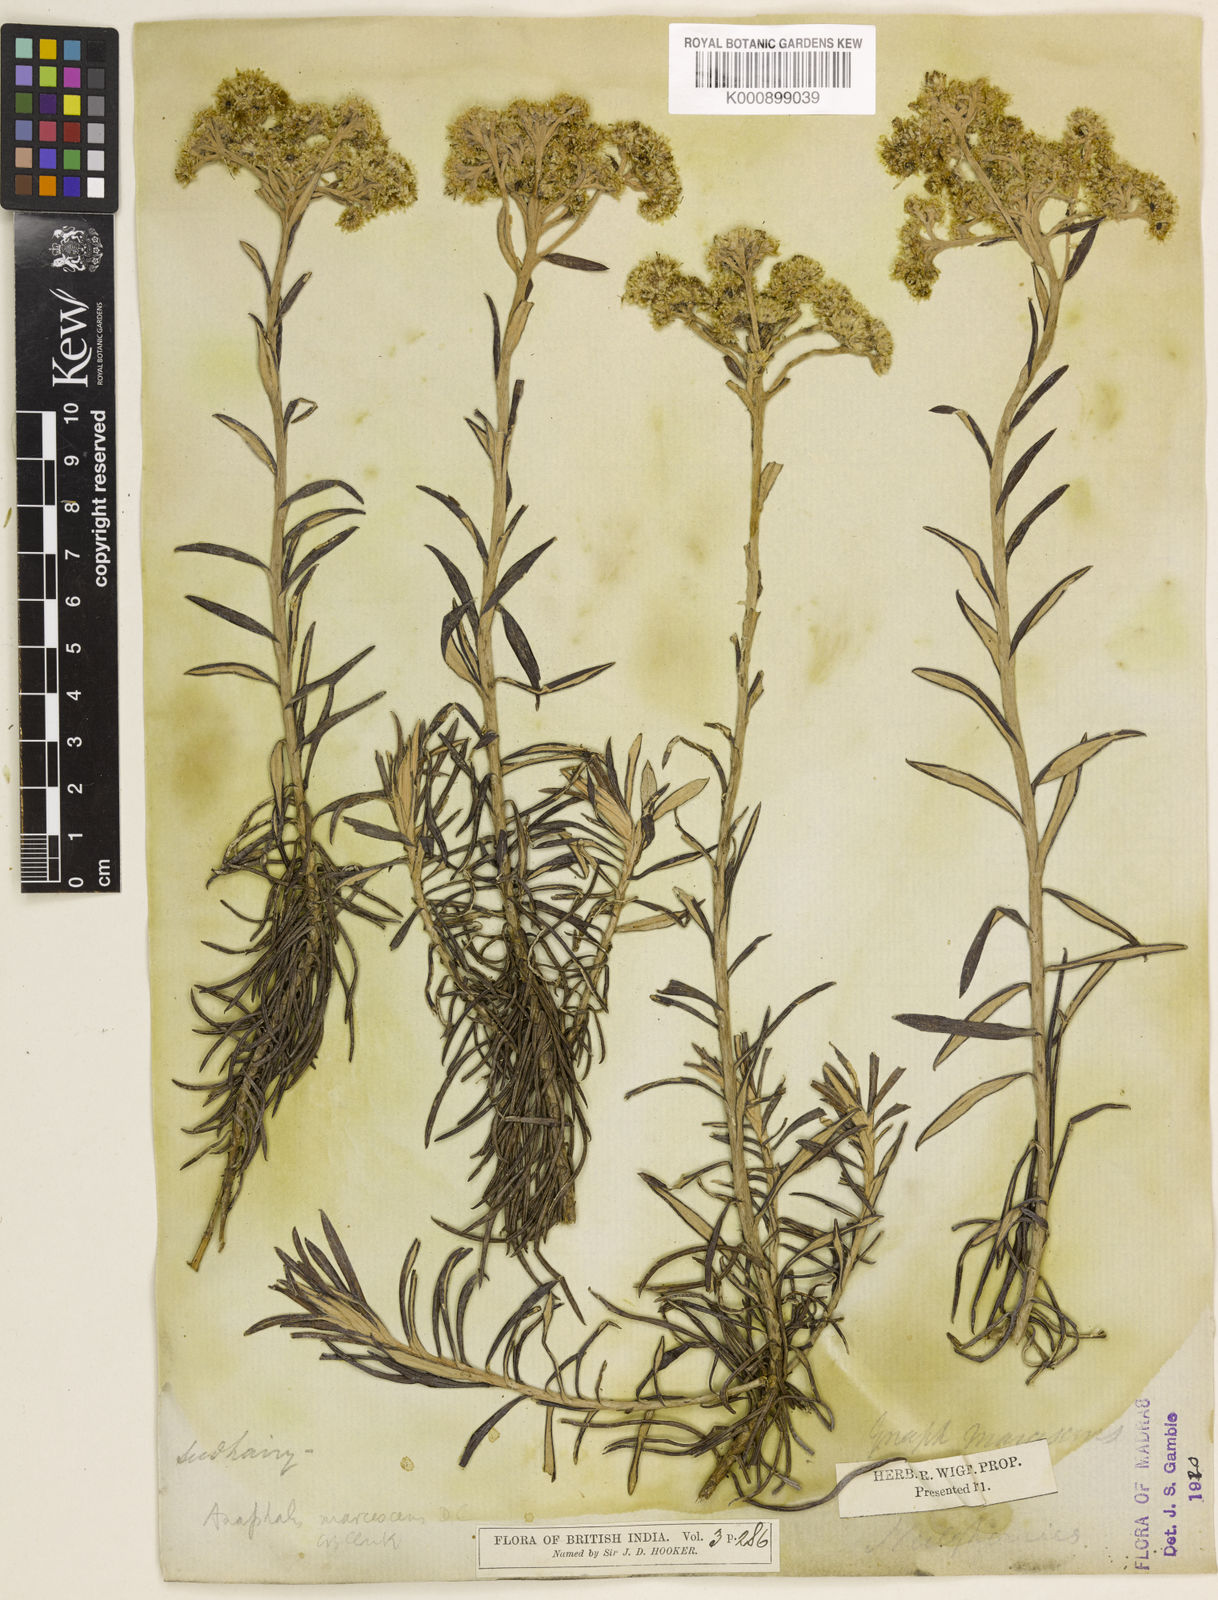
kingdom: Plantae
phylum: Tracheophyta
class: Magnoliopsida
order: Asterales
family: Asteraceae
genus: Anaphalis
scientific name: Anaphalis marcescens
